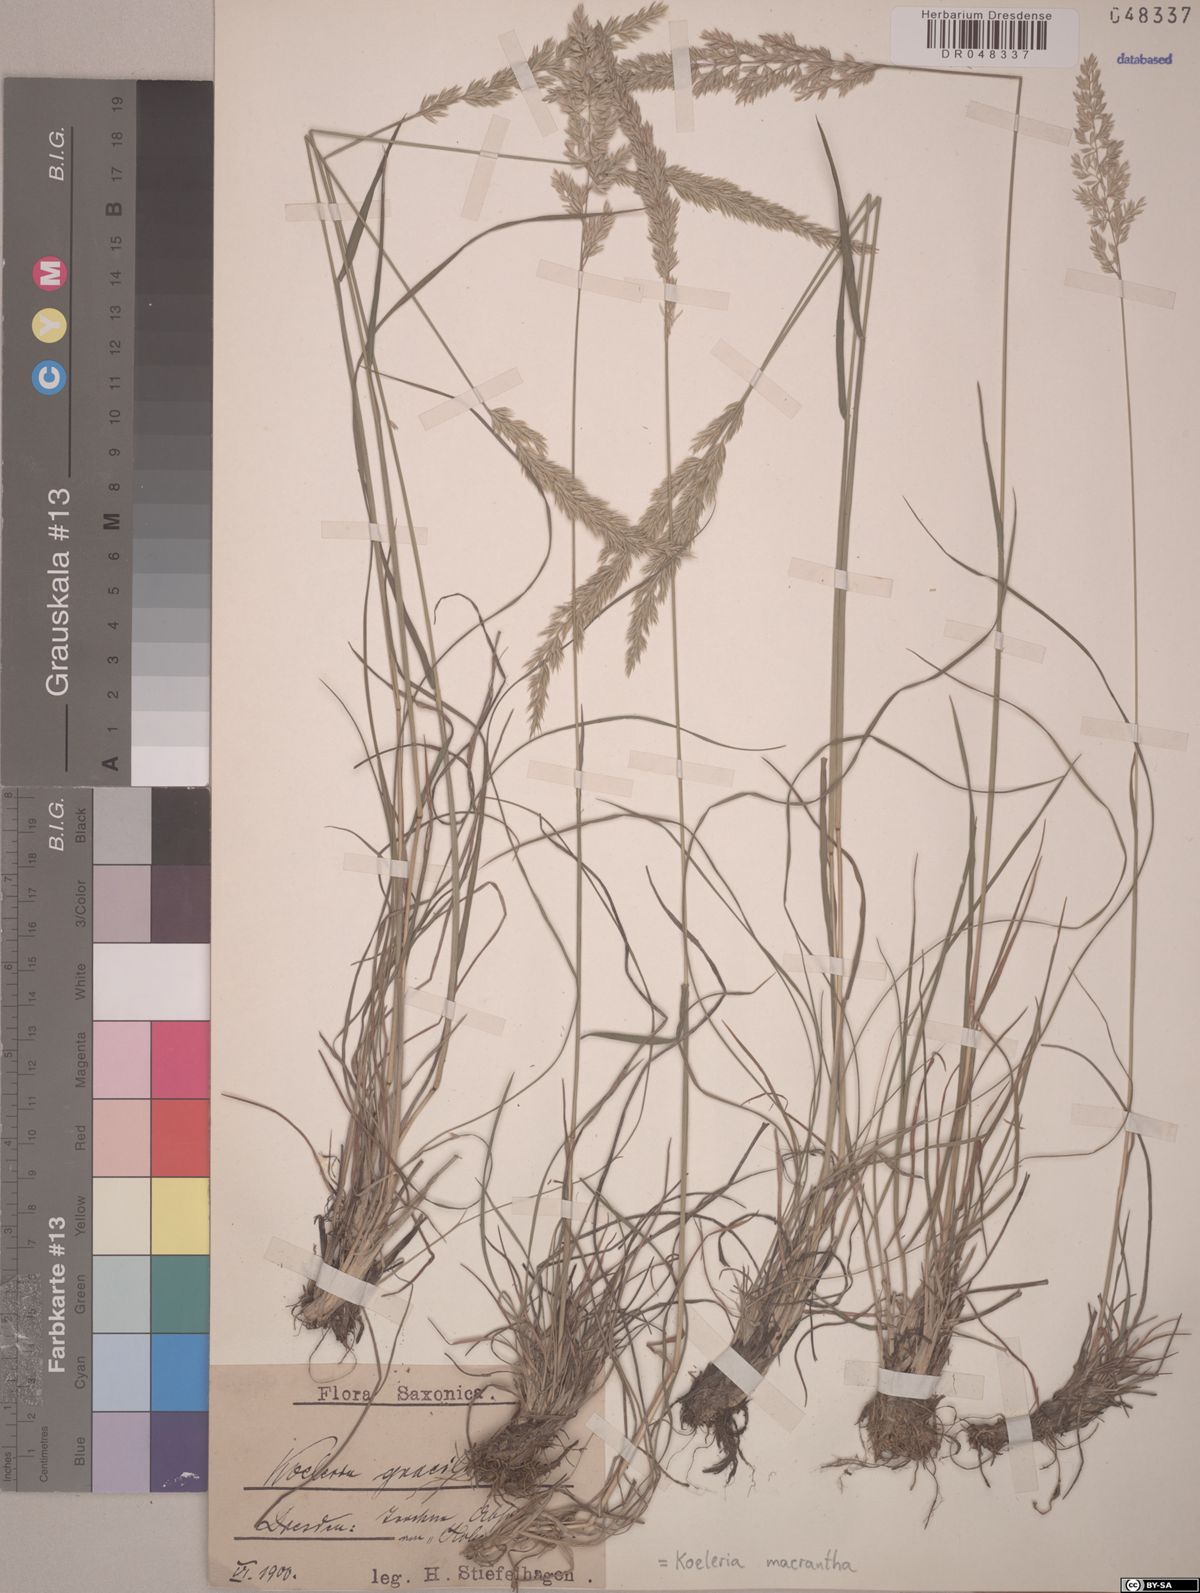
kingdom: Plantae
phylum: Tracheophyta
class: Liliopsida
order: Poales
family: Poaceae
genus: Koeleria
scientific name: Koeleria macrantha
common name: Crested hair-grass
